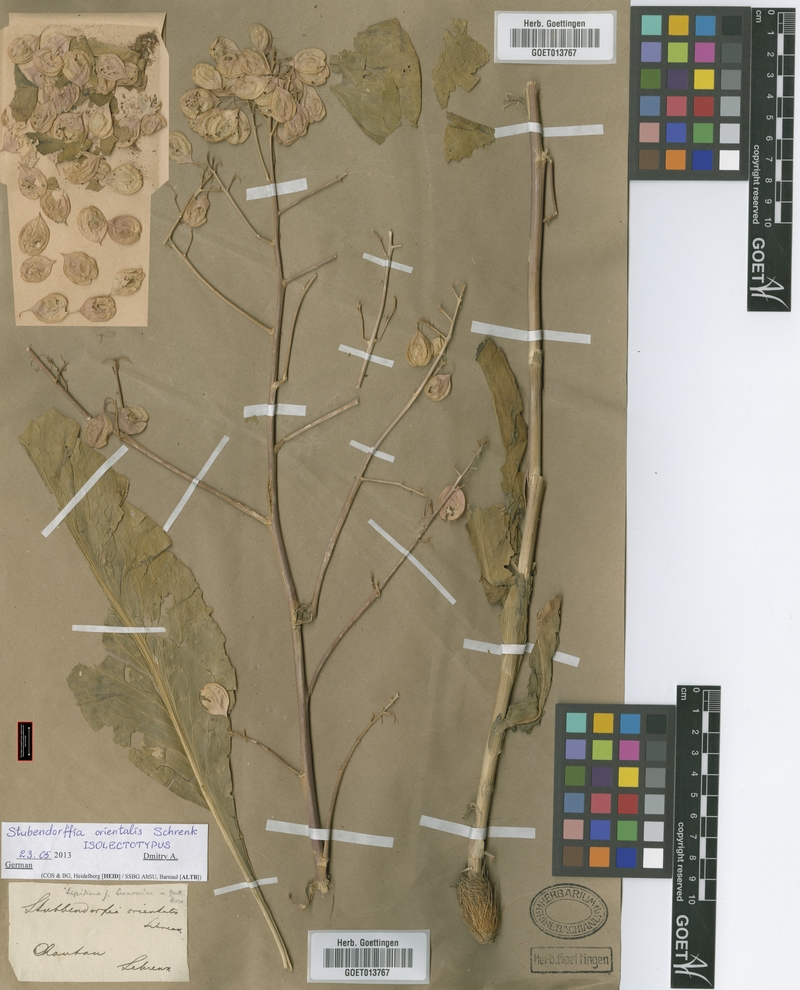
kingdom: Plantae
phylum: Tracheophyta
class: Magnoliopsida
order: Brassicales
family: Brassicaceae
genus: Lepidium
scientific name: Lepidium orientale
